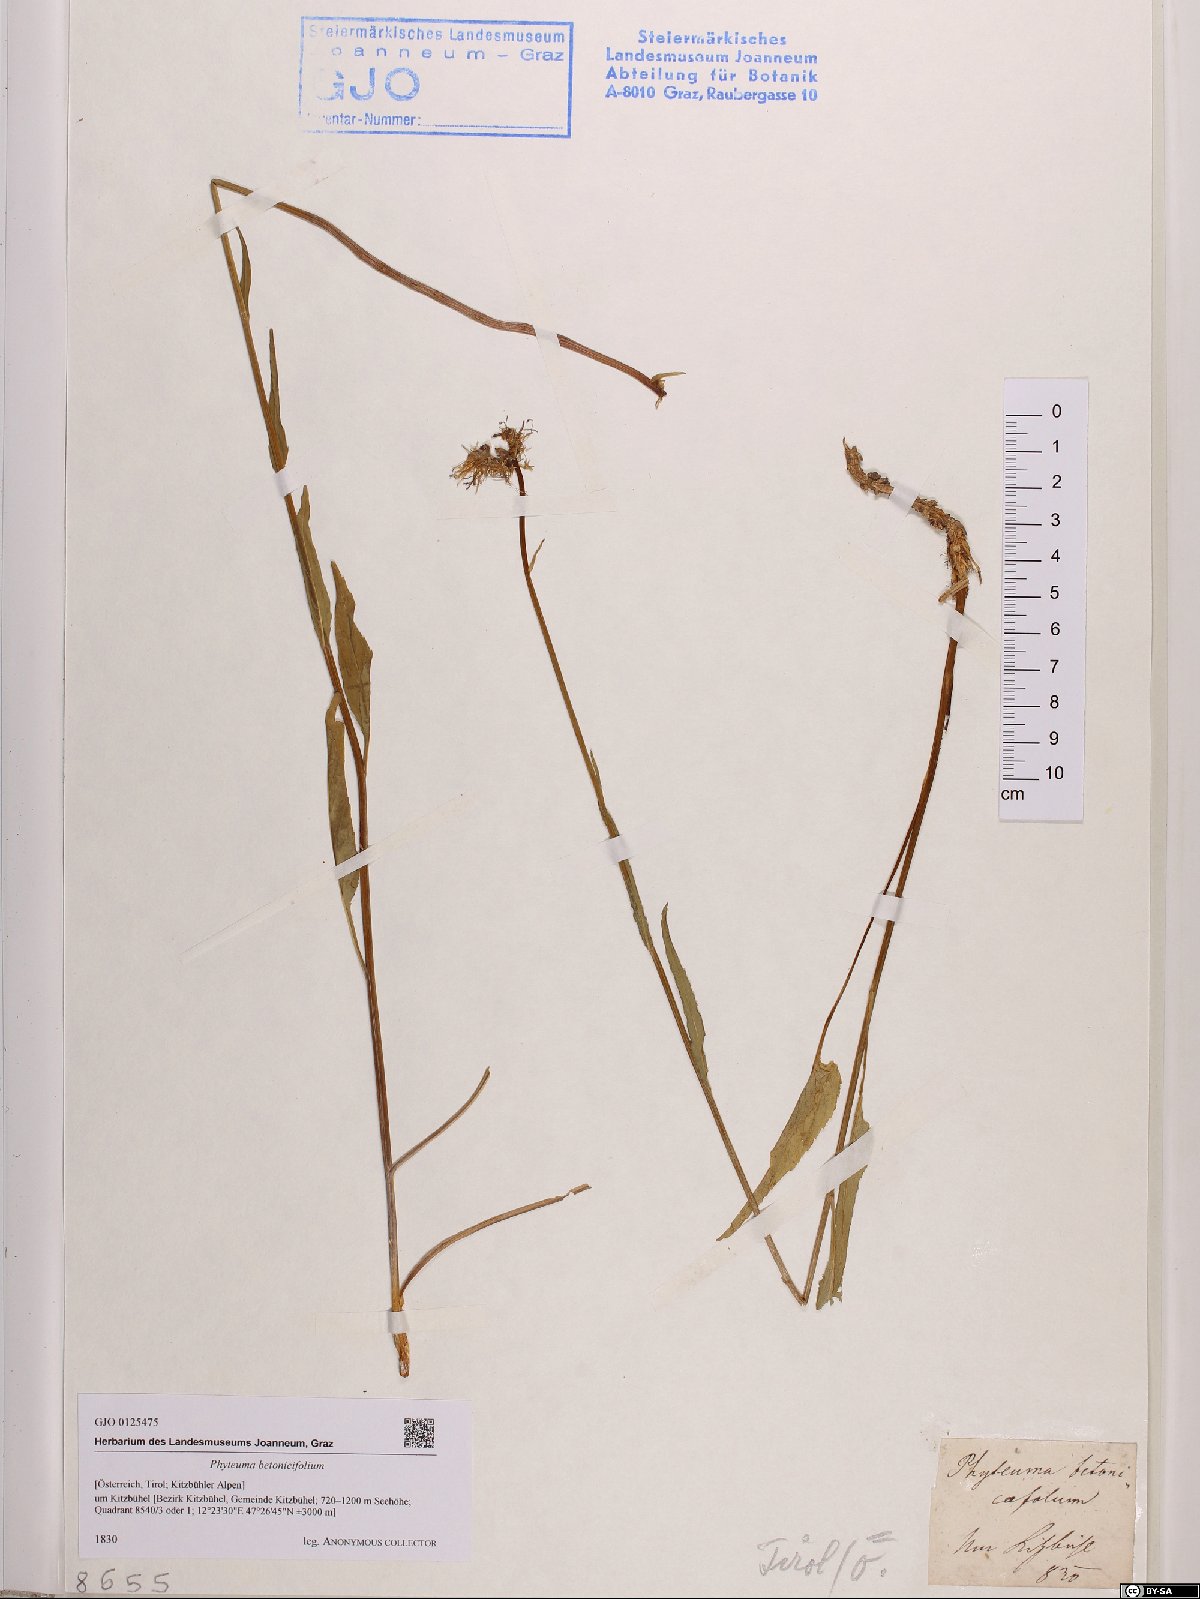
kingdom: Plantae
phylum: Tracheophyta
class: Magnoliopsida
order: Asterales
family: Campanulaceae
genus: Phyteuma
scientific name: Phyteuma betonicifolium
